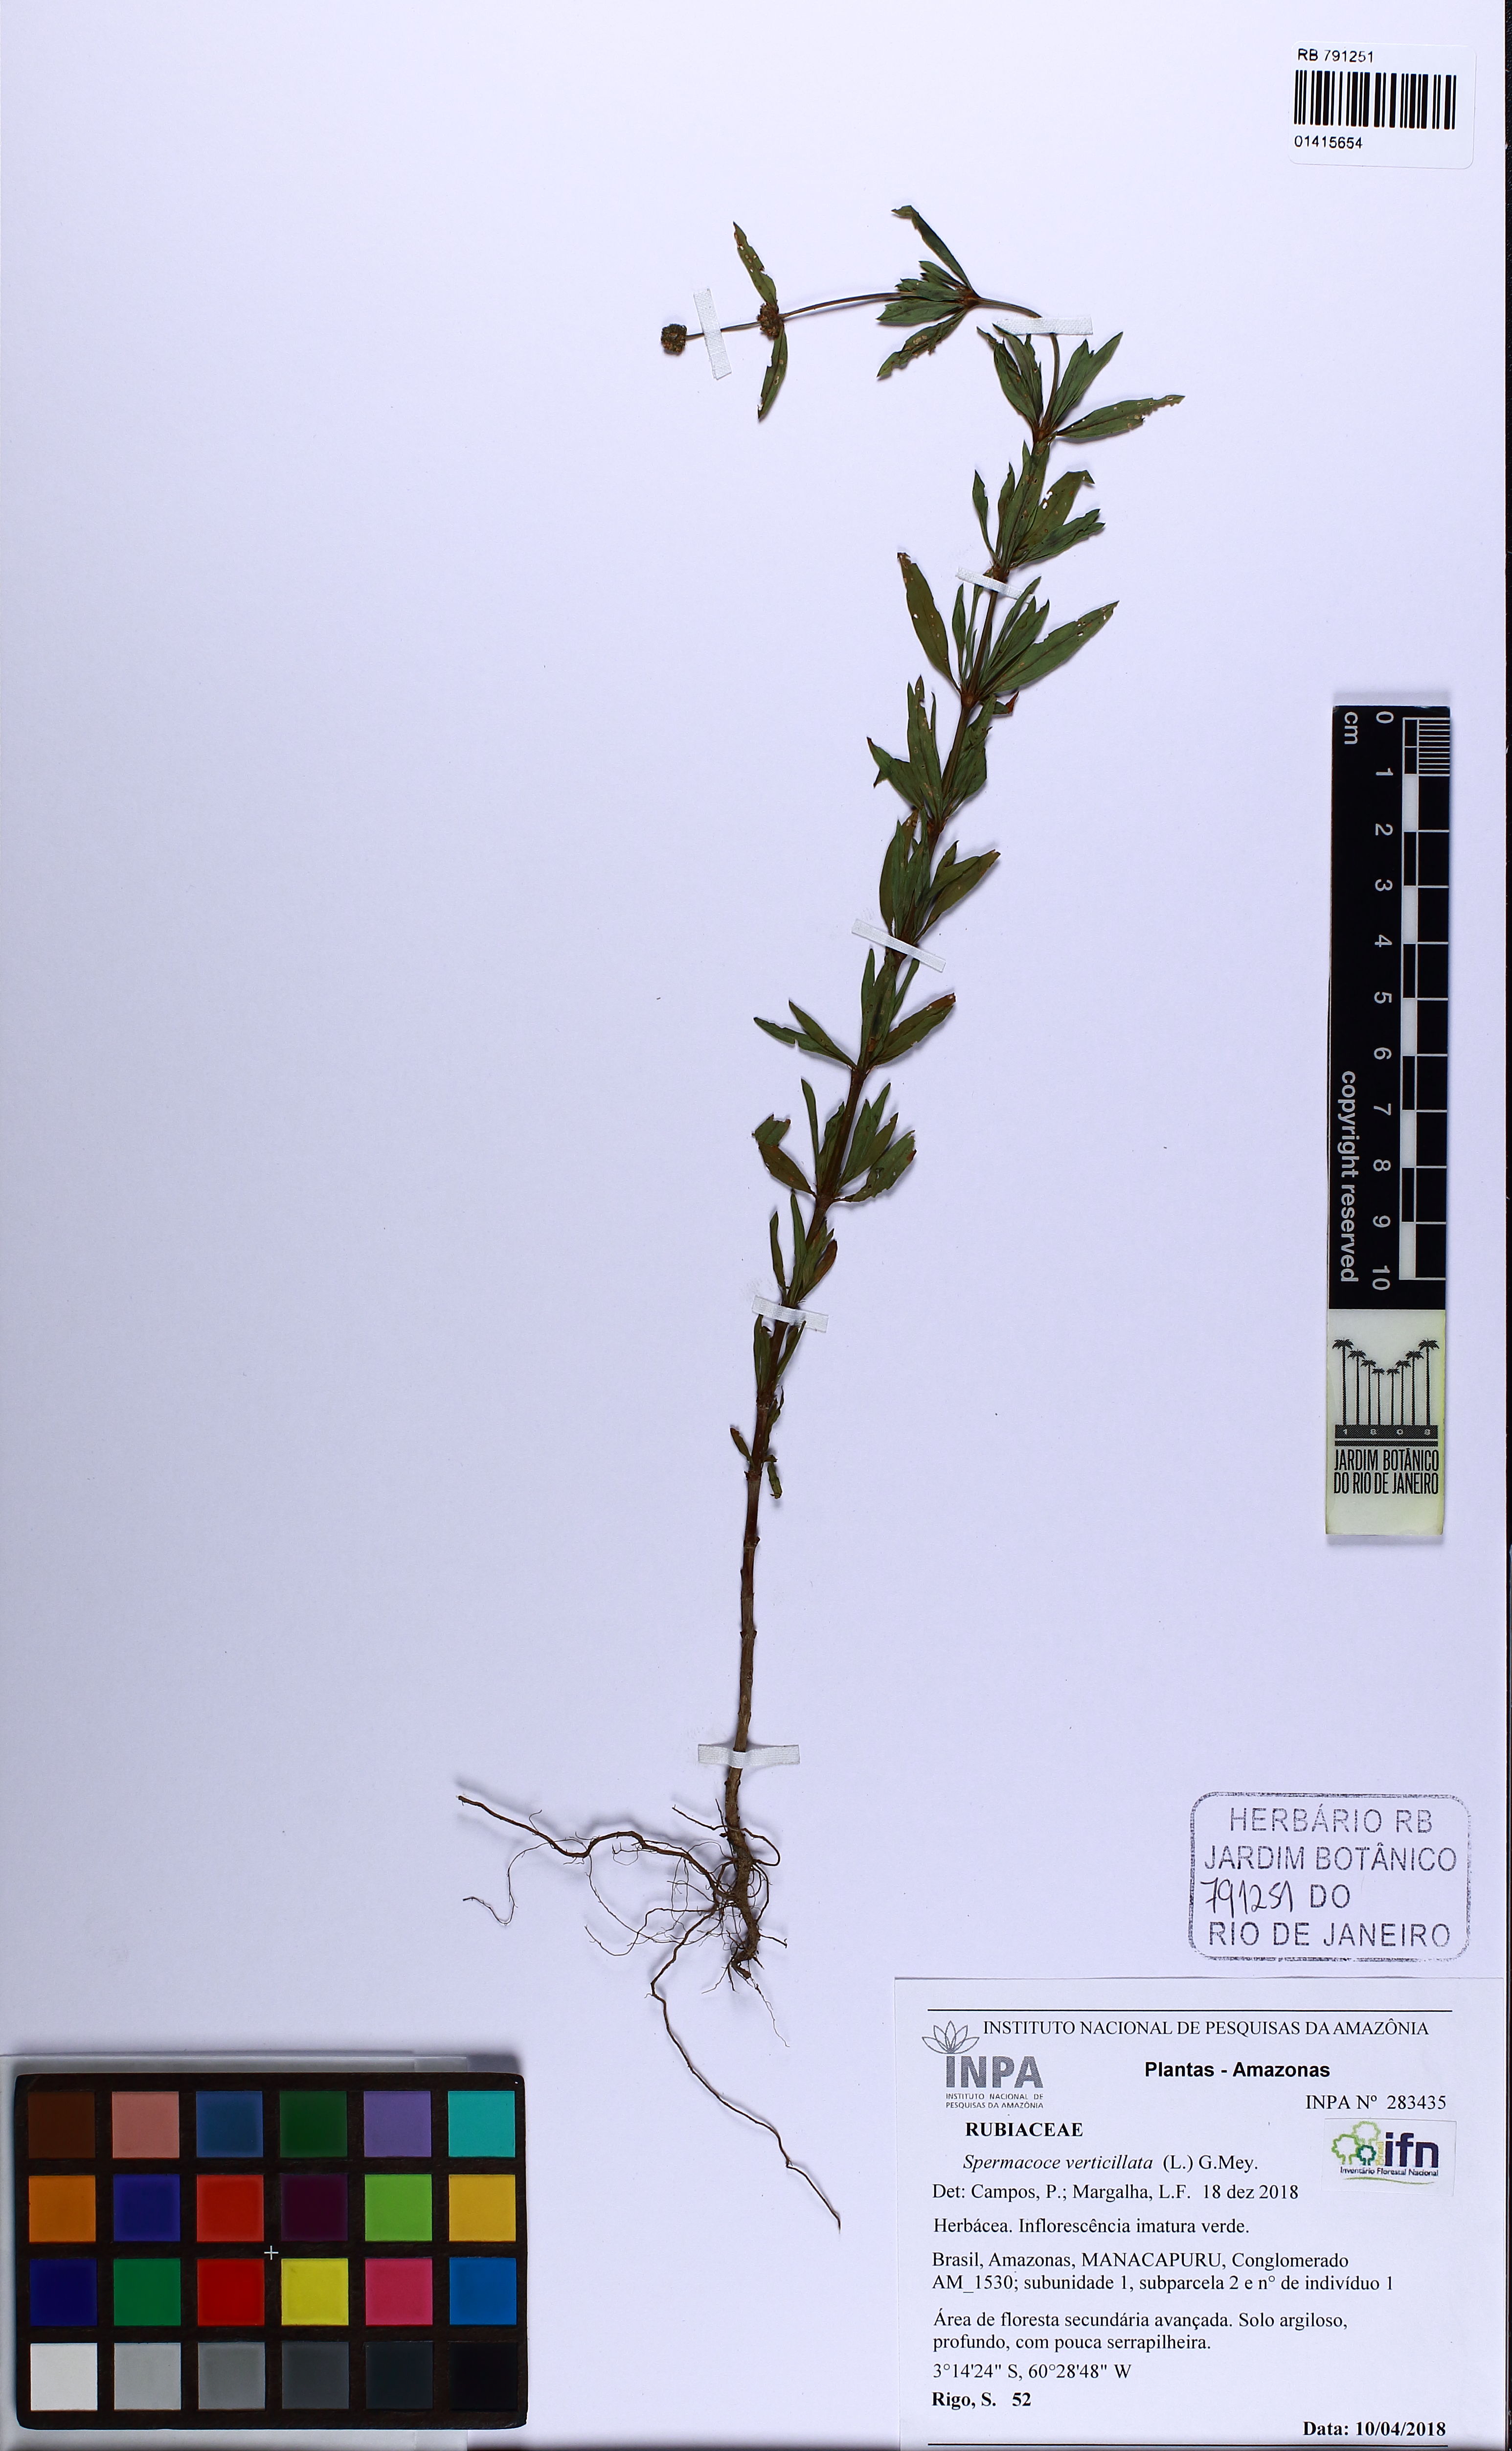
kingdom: Plantae
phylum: Tracheophyta
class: Magnoliopsida
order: Gentianales
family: Rubiaceae
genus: Spermacoce
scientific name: Spermacoce verticillata
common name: Shrubby false buttonweed
